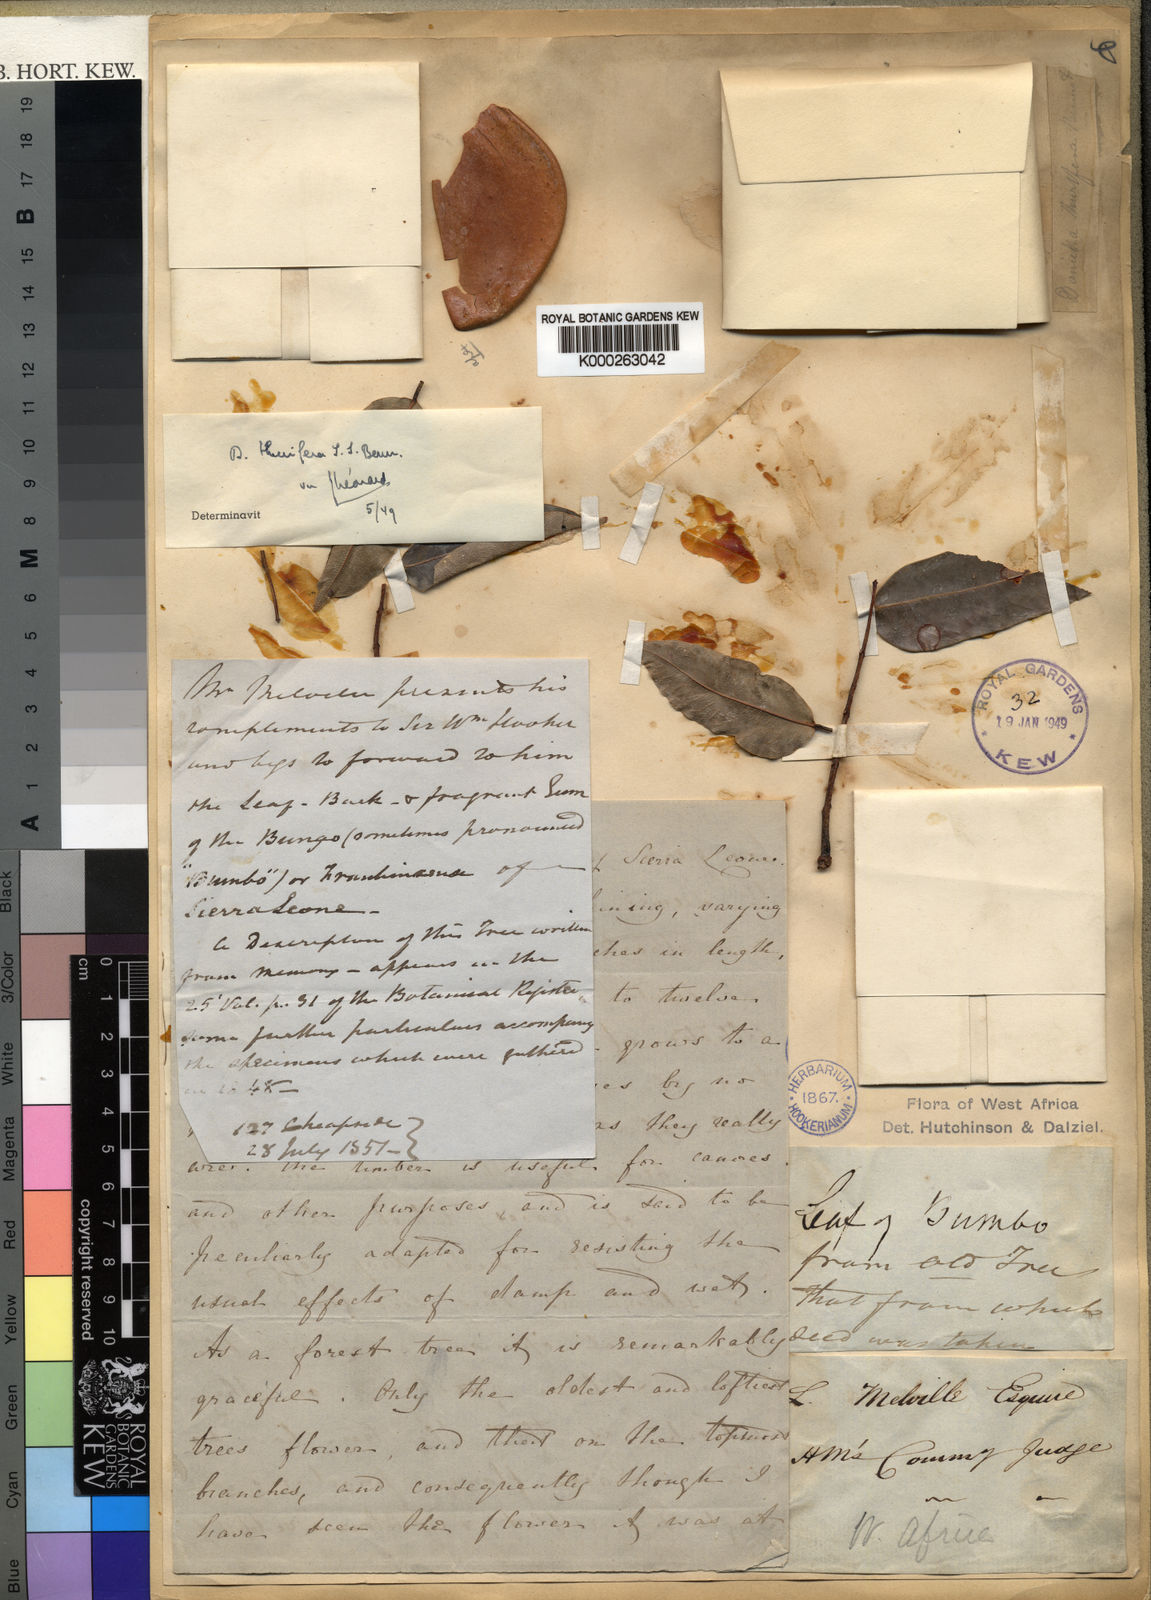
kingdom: Plantae
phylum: Tracheophyta
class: Magnoliopsida
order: Fabales
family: Fabaceae
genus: Daniellia
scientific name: Daniellia thurifera
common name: Sudan copal
